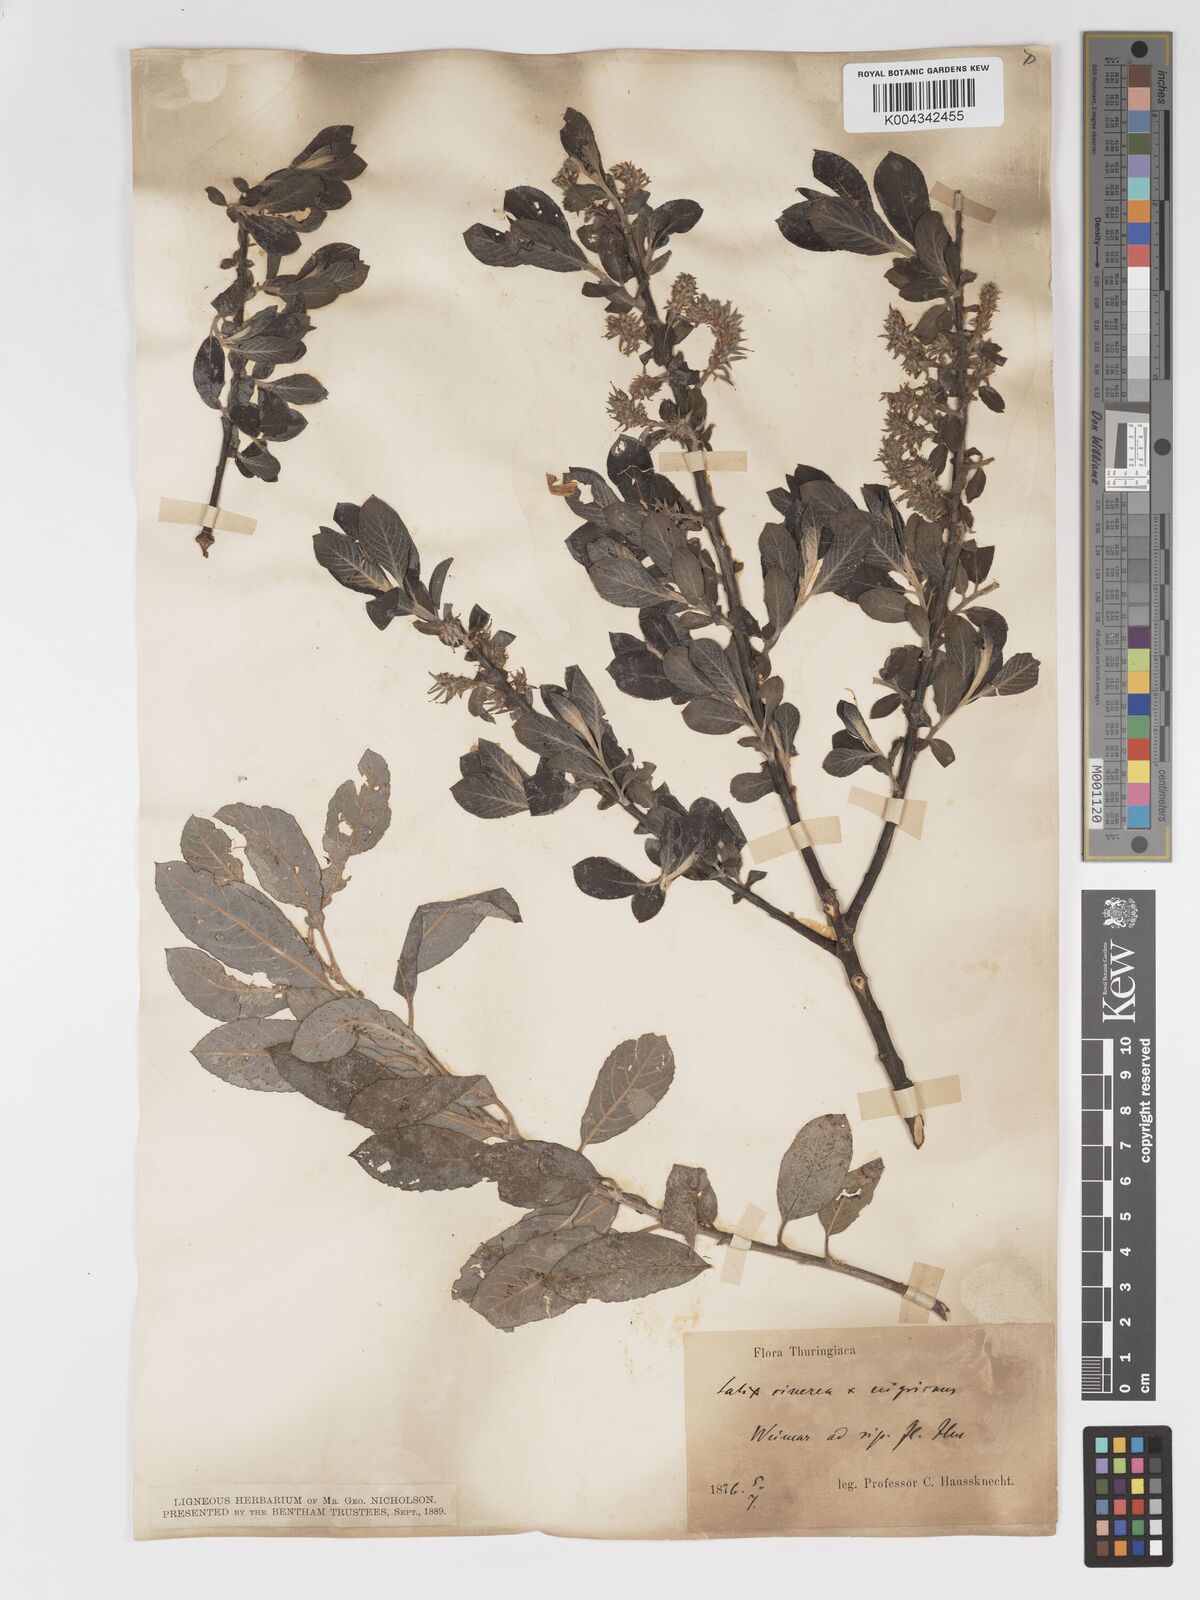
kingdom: Plantae
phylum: Tracheophyta
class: Magnoliopsida
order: Malpighiales
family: Salicaceae
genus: Salix
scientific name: Salix
